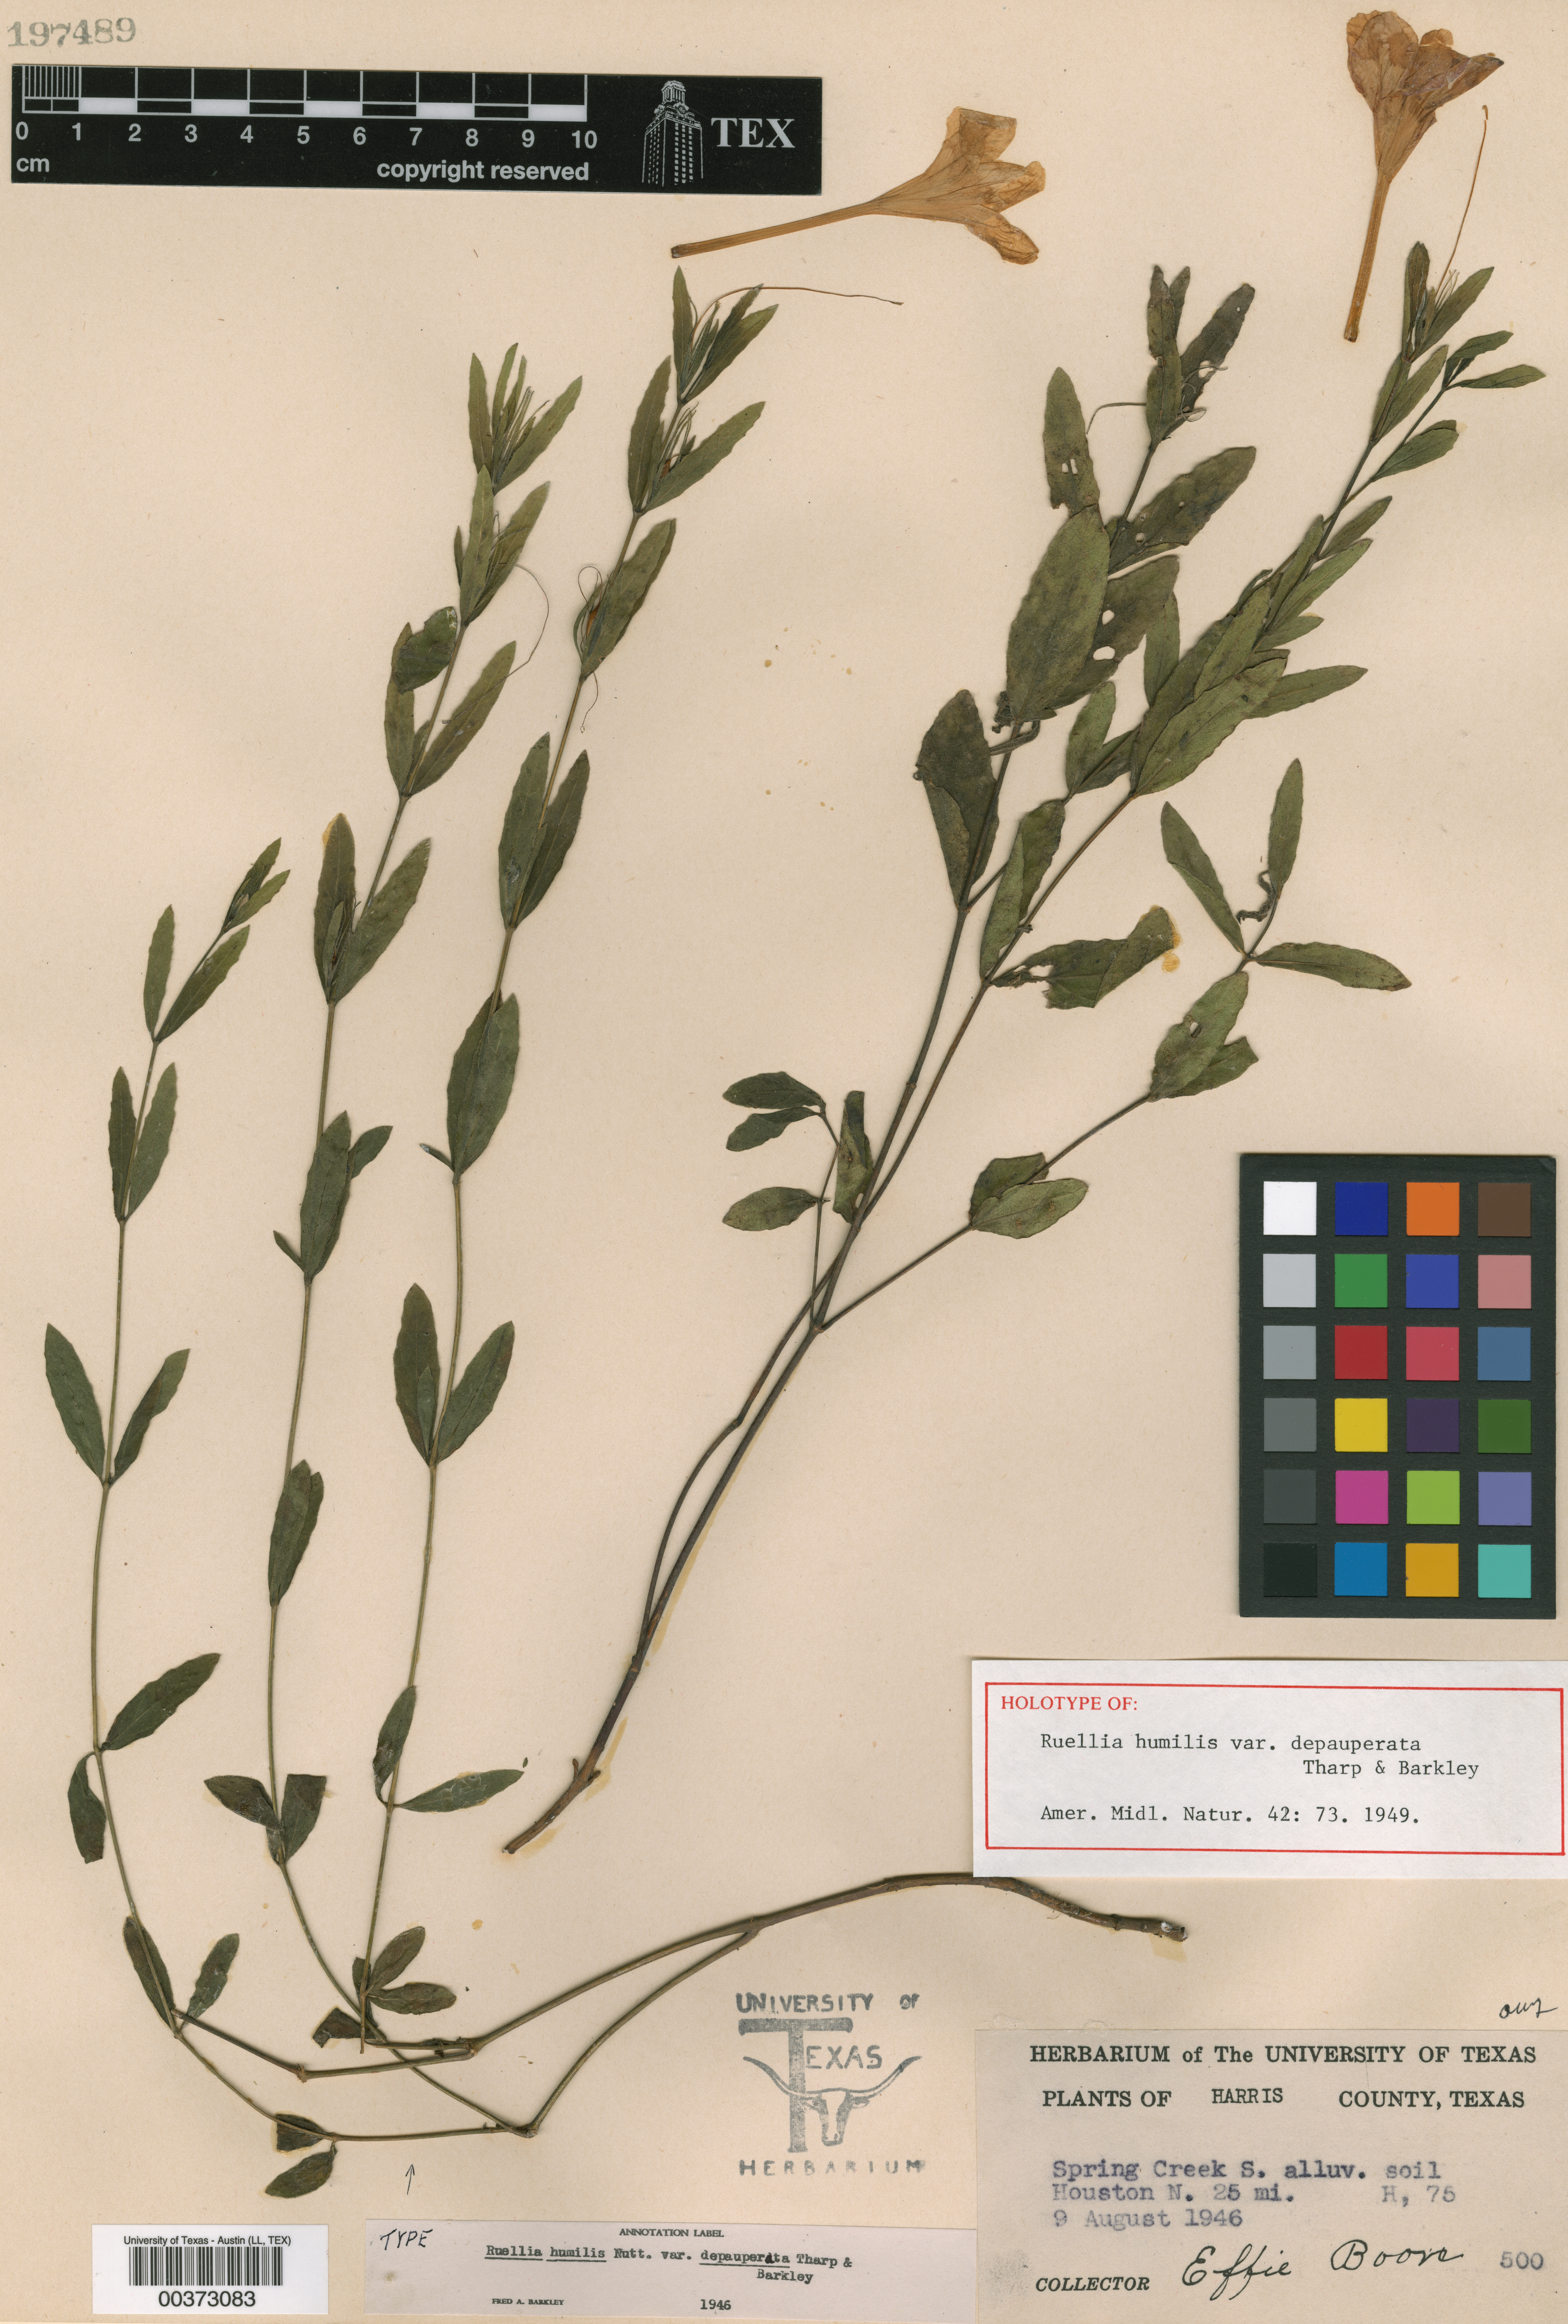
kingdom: Plantae
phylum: Tracheophyta
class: Magnoliopsida
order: Lamiales
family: Acanthaceae
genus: Ruellia
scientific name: Ruellia humilis
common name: Fringe-leaf ruellia
